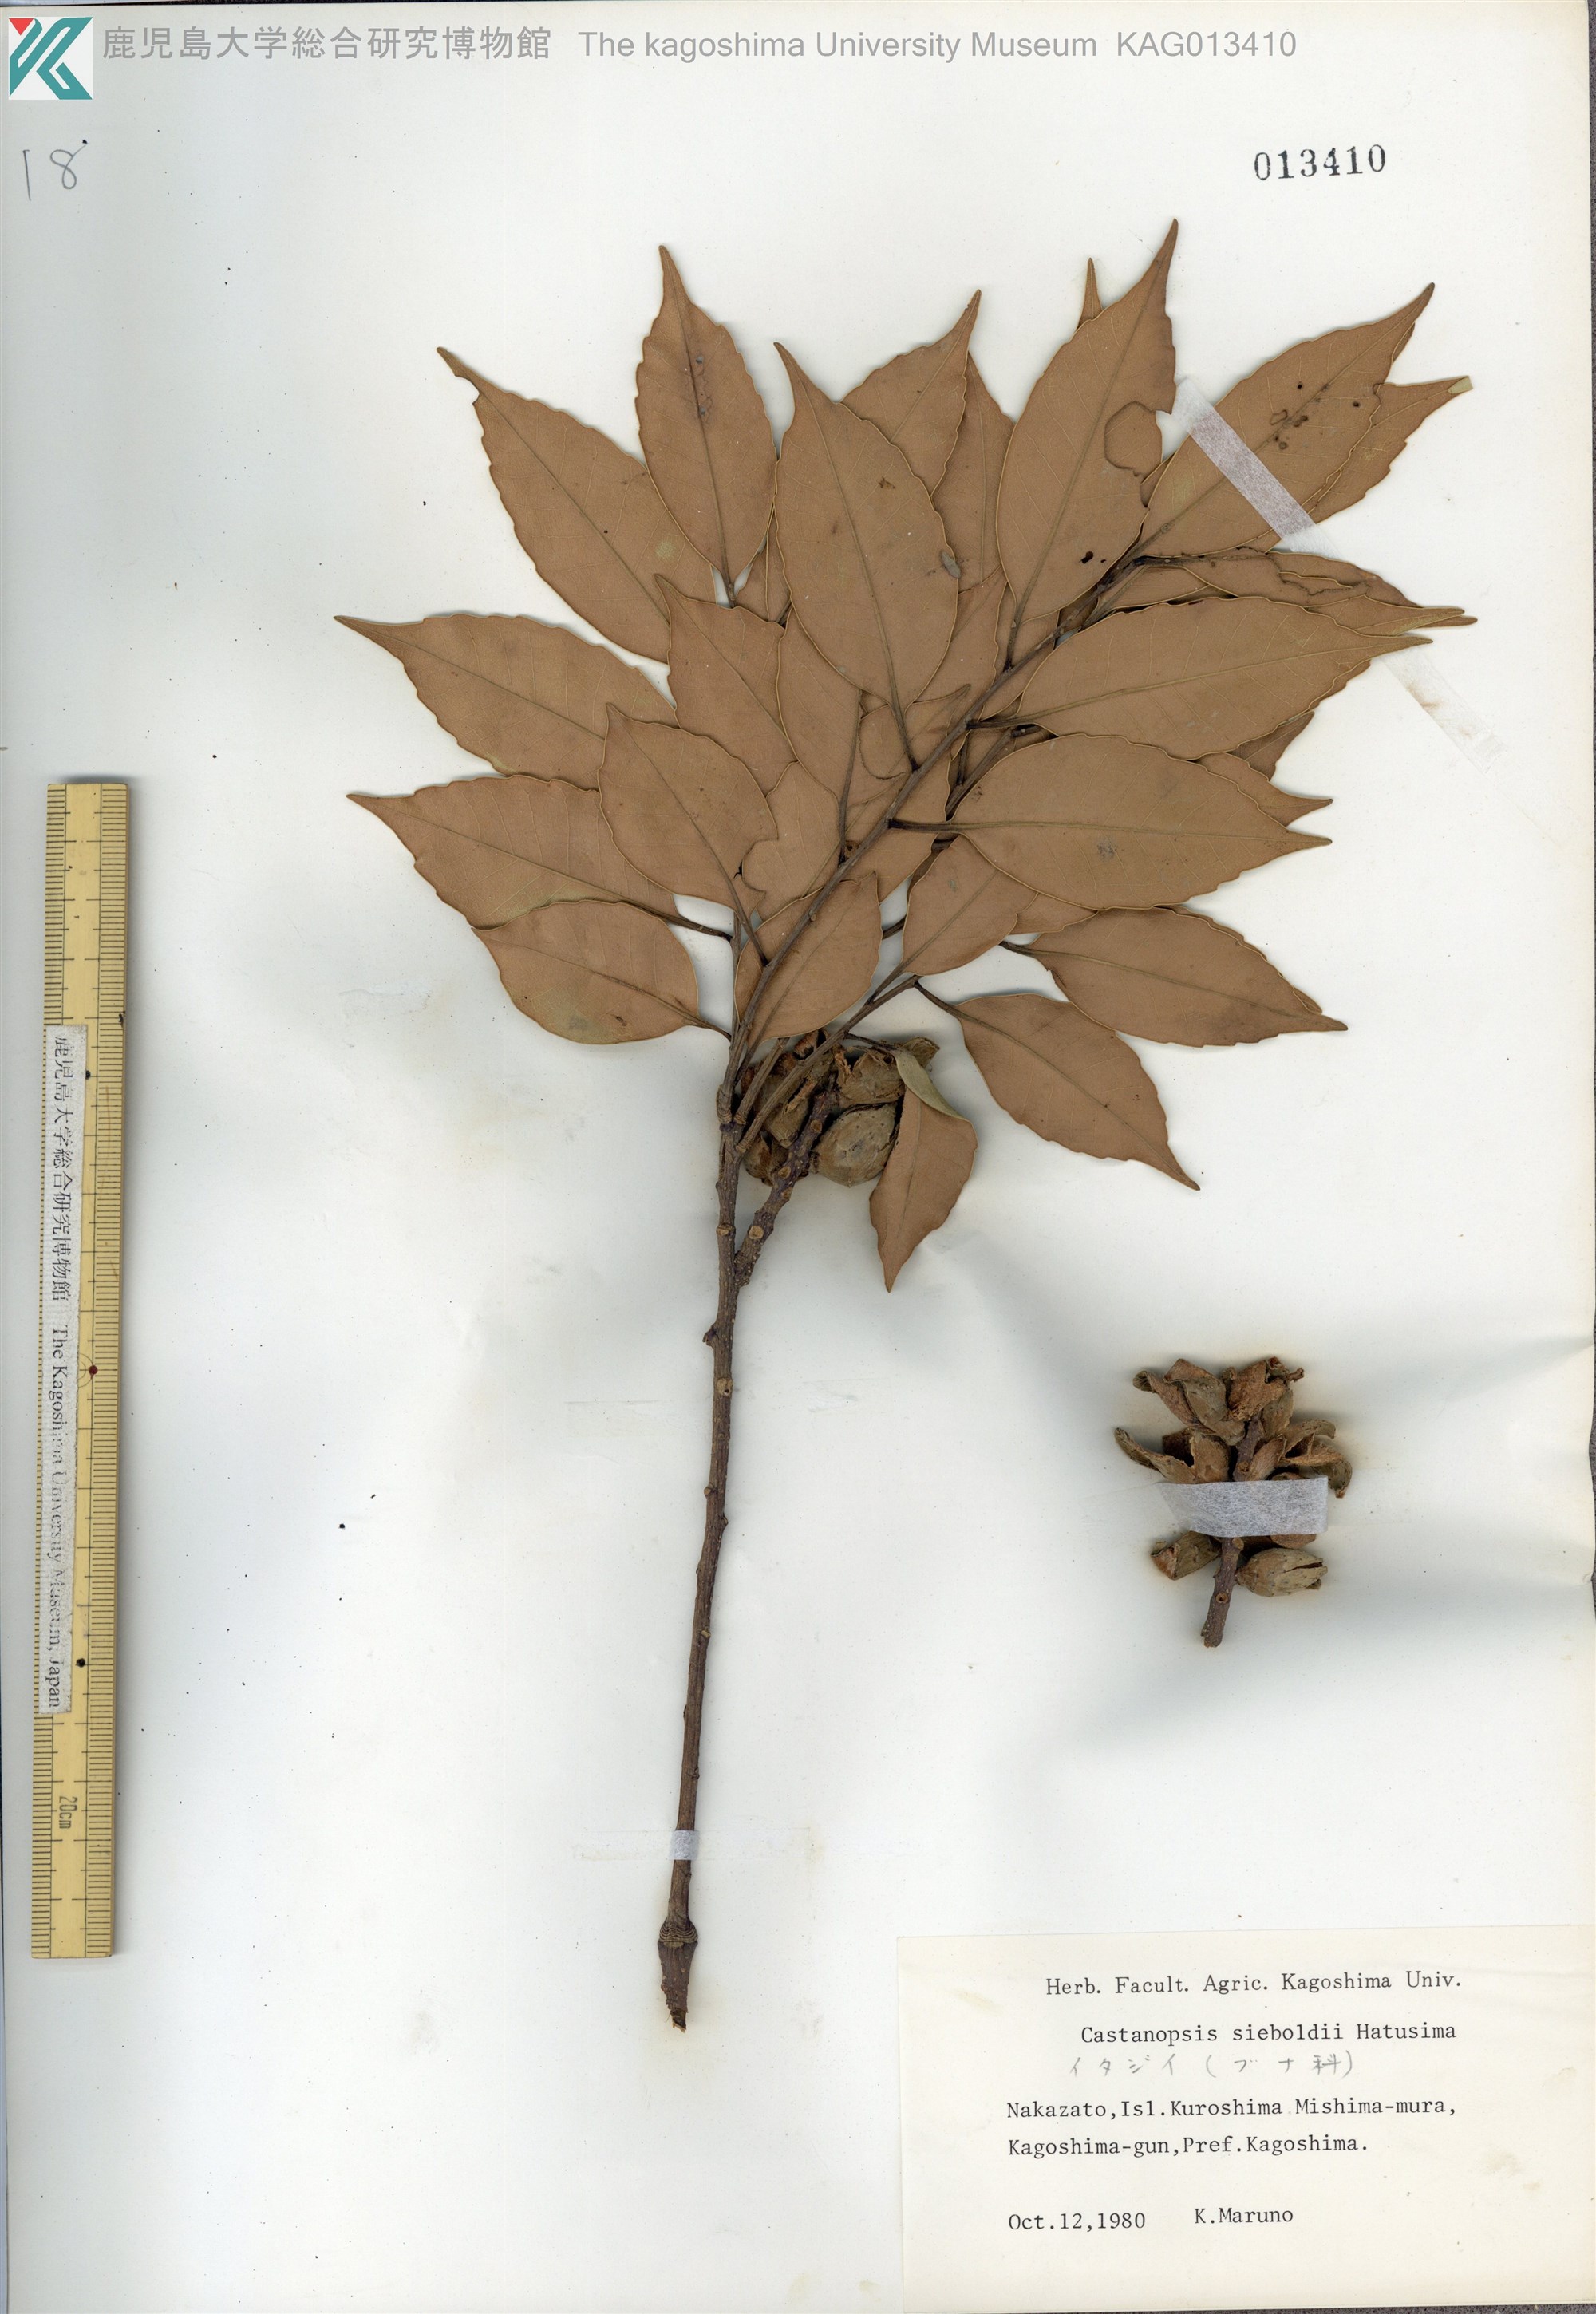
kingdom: Plantae
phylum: Tracheophyta
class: Magnoliopsida
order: Fagales
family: Fagaceae
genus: Castanopsis
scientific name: Castanopsis sieboldii
